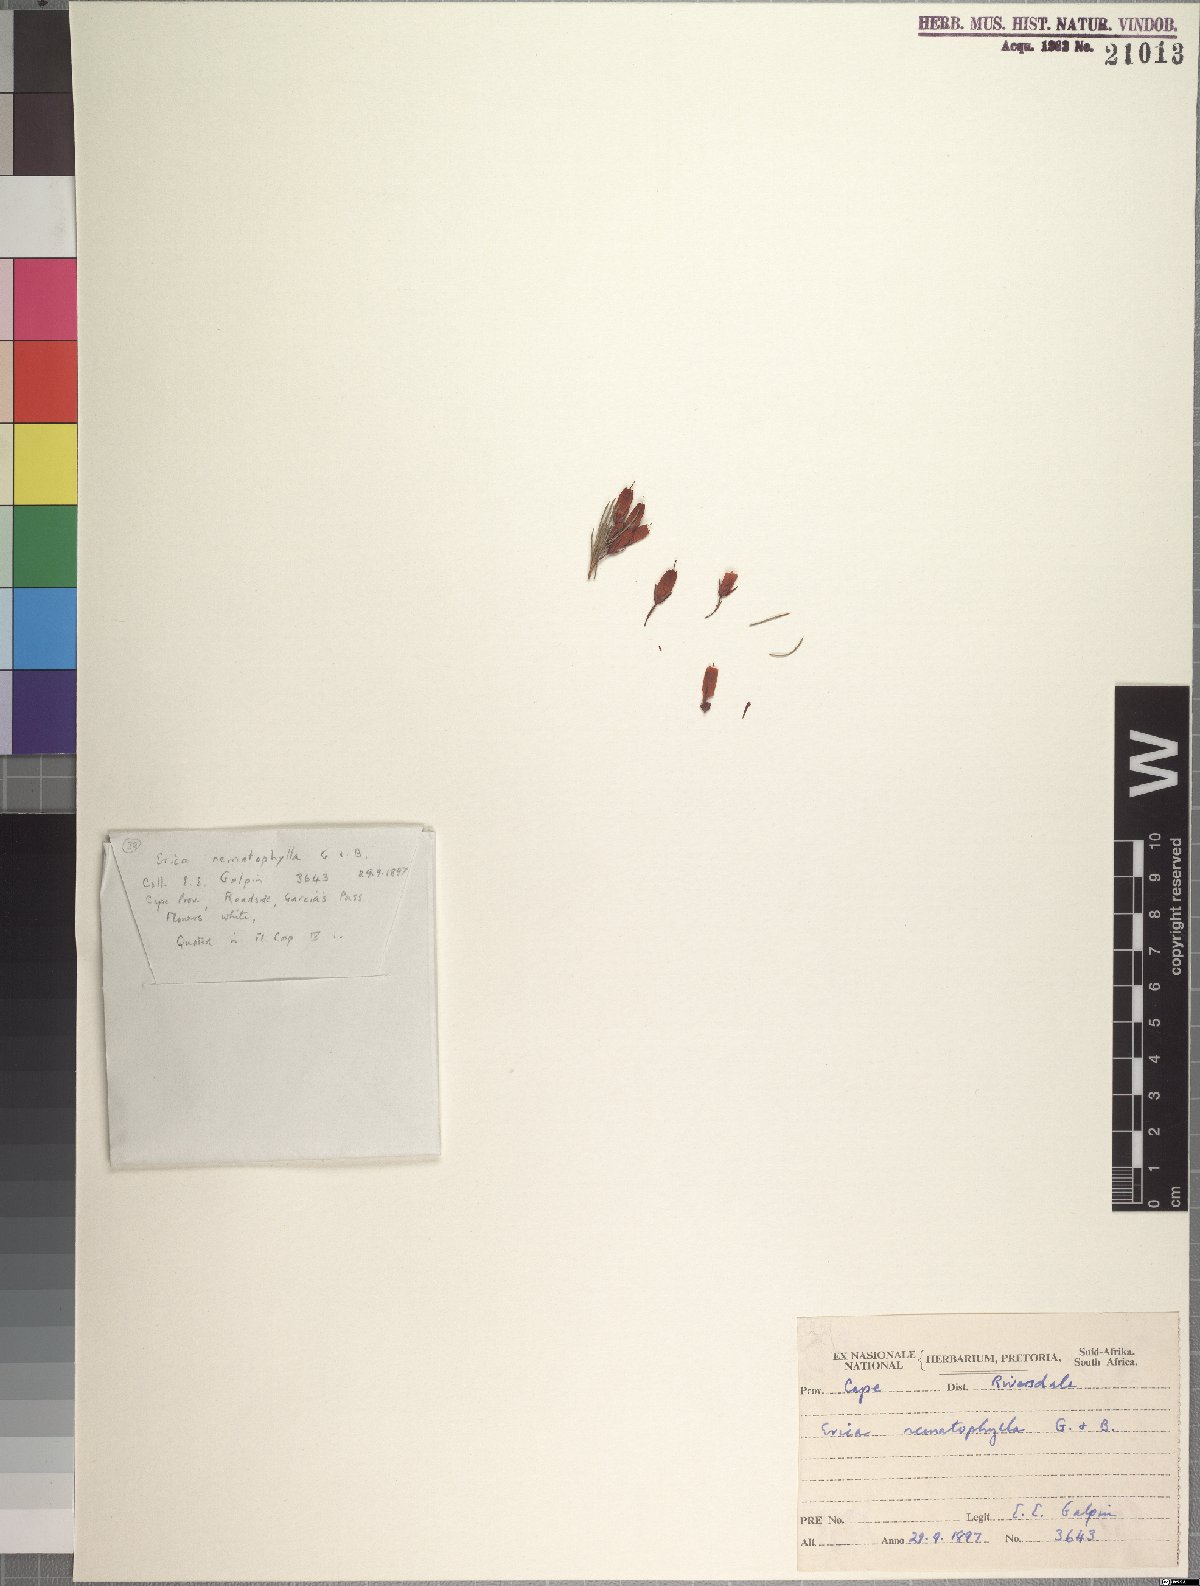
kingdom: Plantae
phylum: Tracheophyta
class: Magnoliopsida
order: Ericales
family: Ericaceae
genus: Erica
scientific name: Erica nematophylla
